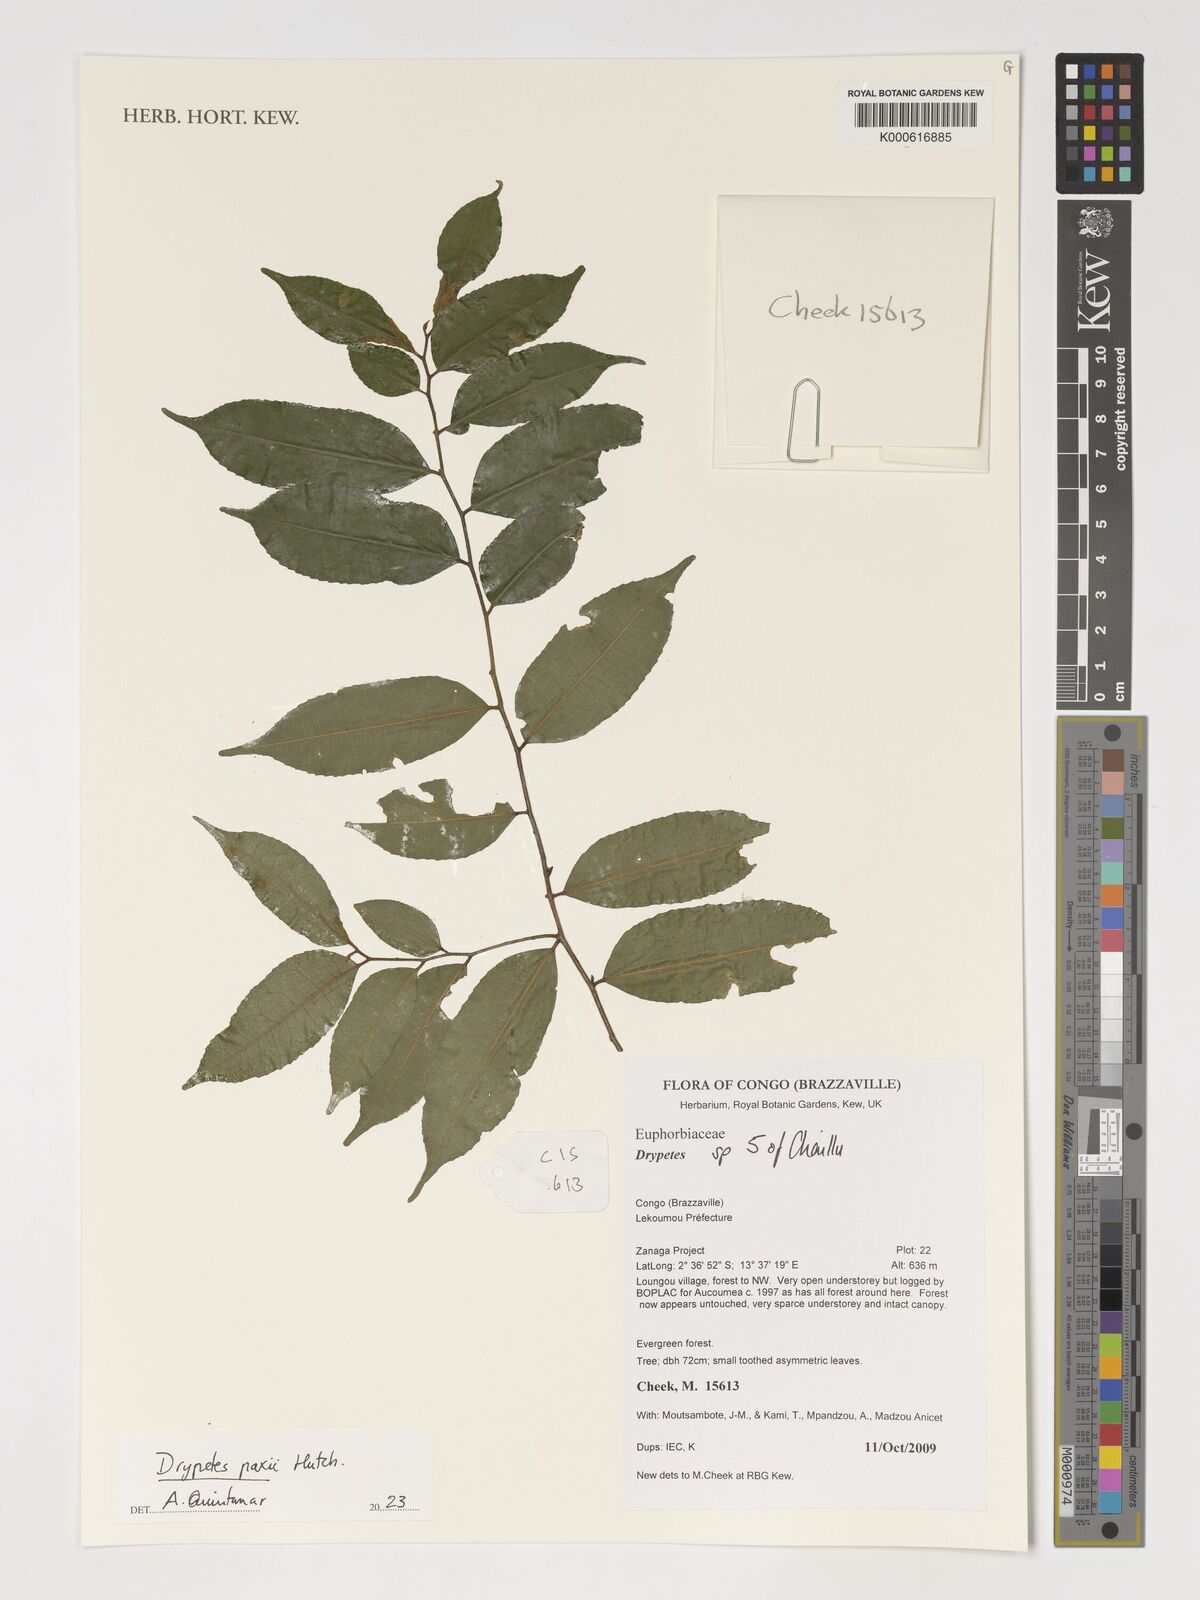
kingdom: Plantae
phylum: Tracheophyta
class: Magnoliopsida
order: Malpighiales
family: Putranjivaceae
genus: Drypetes
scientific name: Drypetes paxii
